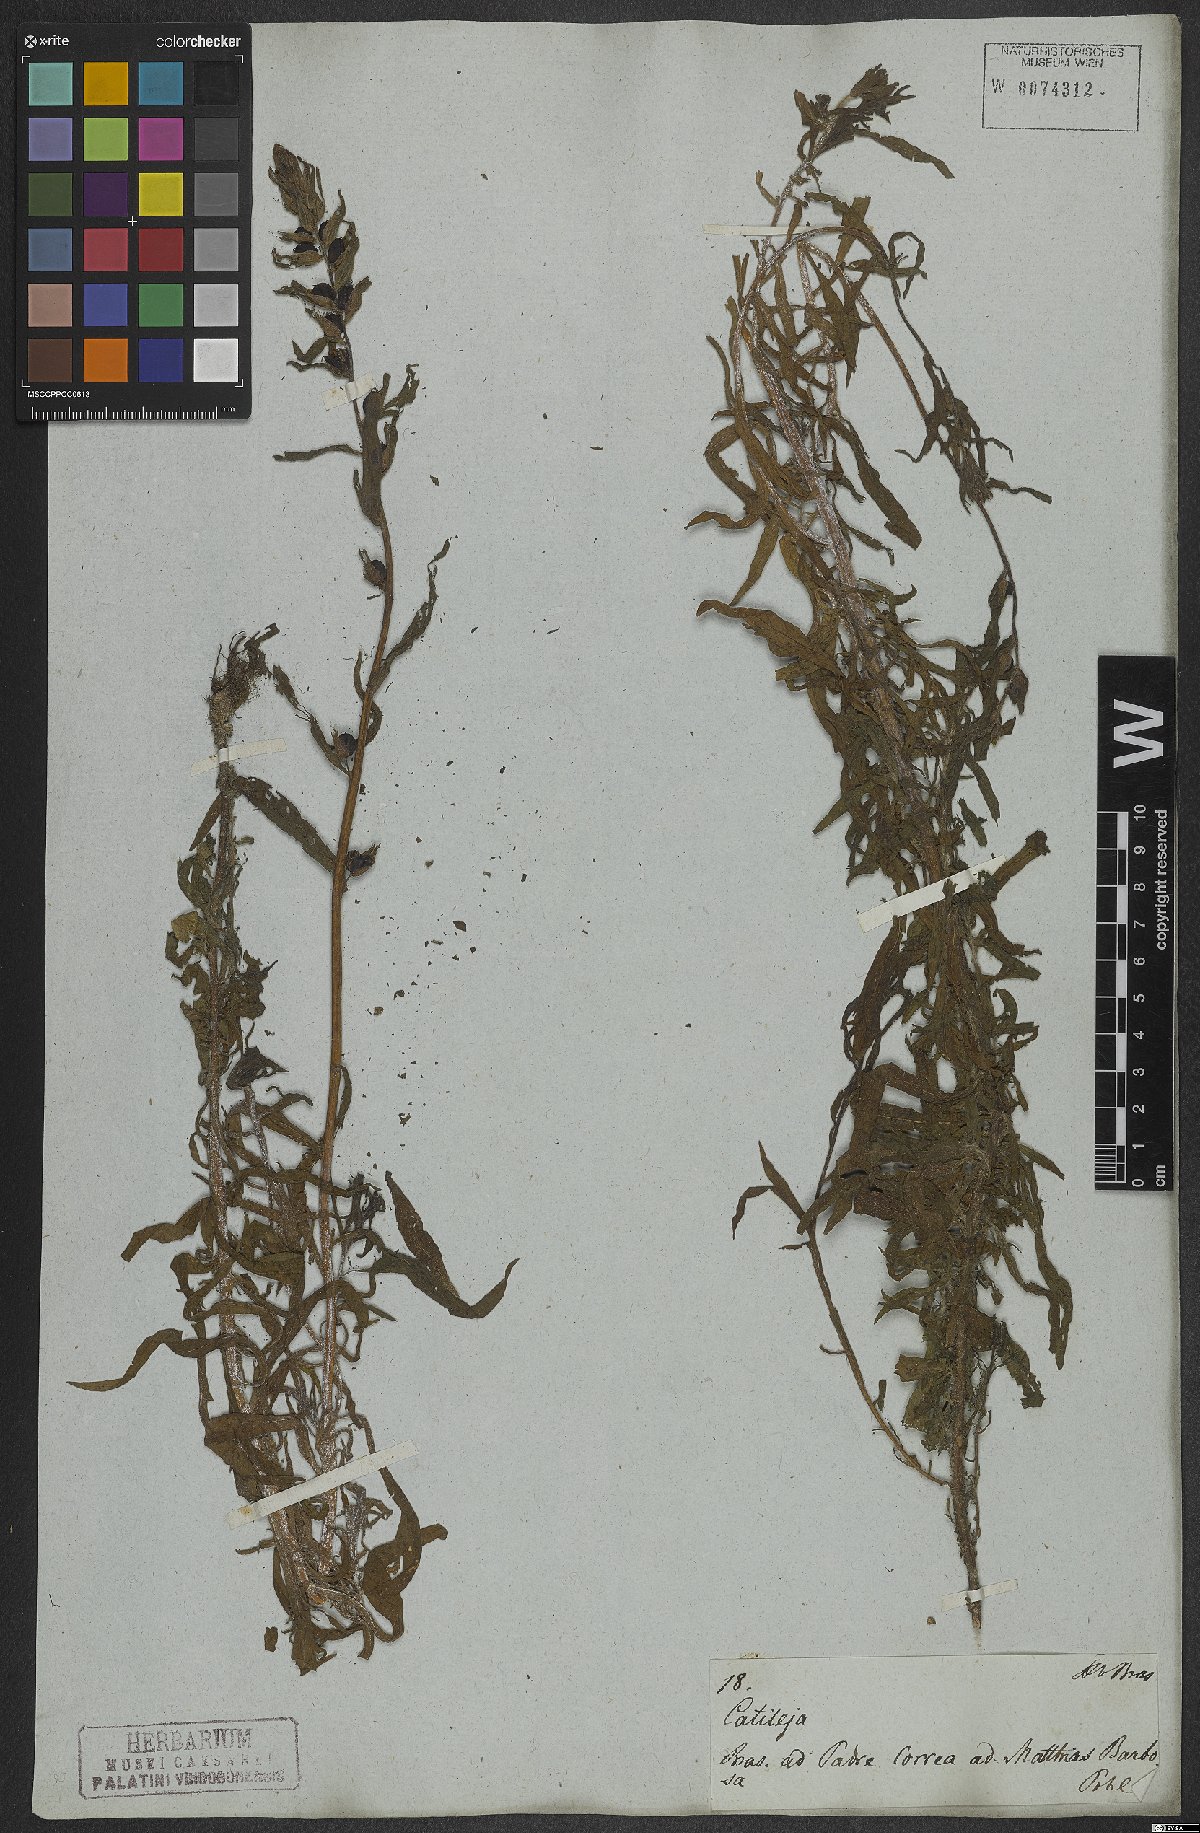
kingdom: Plantae
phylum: Tracheophyta
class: Magnoliopsida
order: Lamiales
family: Orobanchaceae
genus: Castilleja
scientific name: Castilleja arvensis
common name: Indian paintbrush
